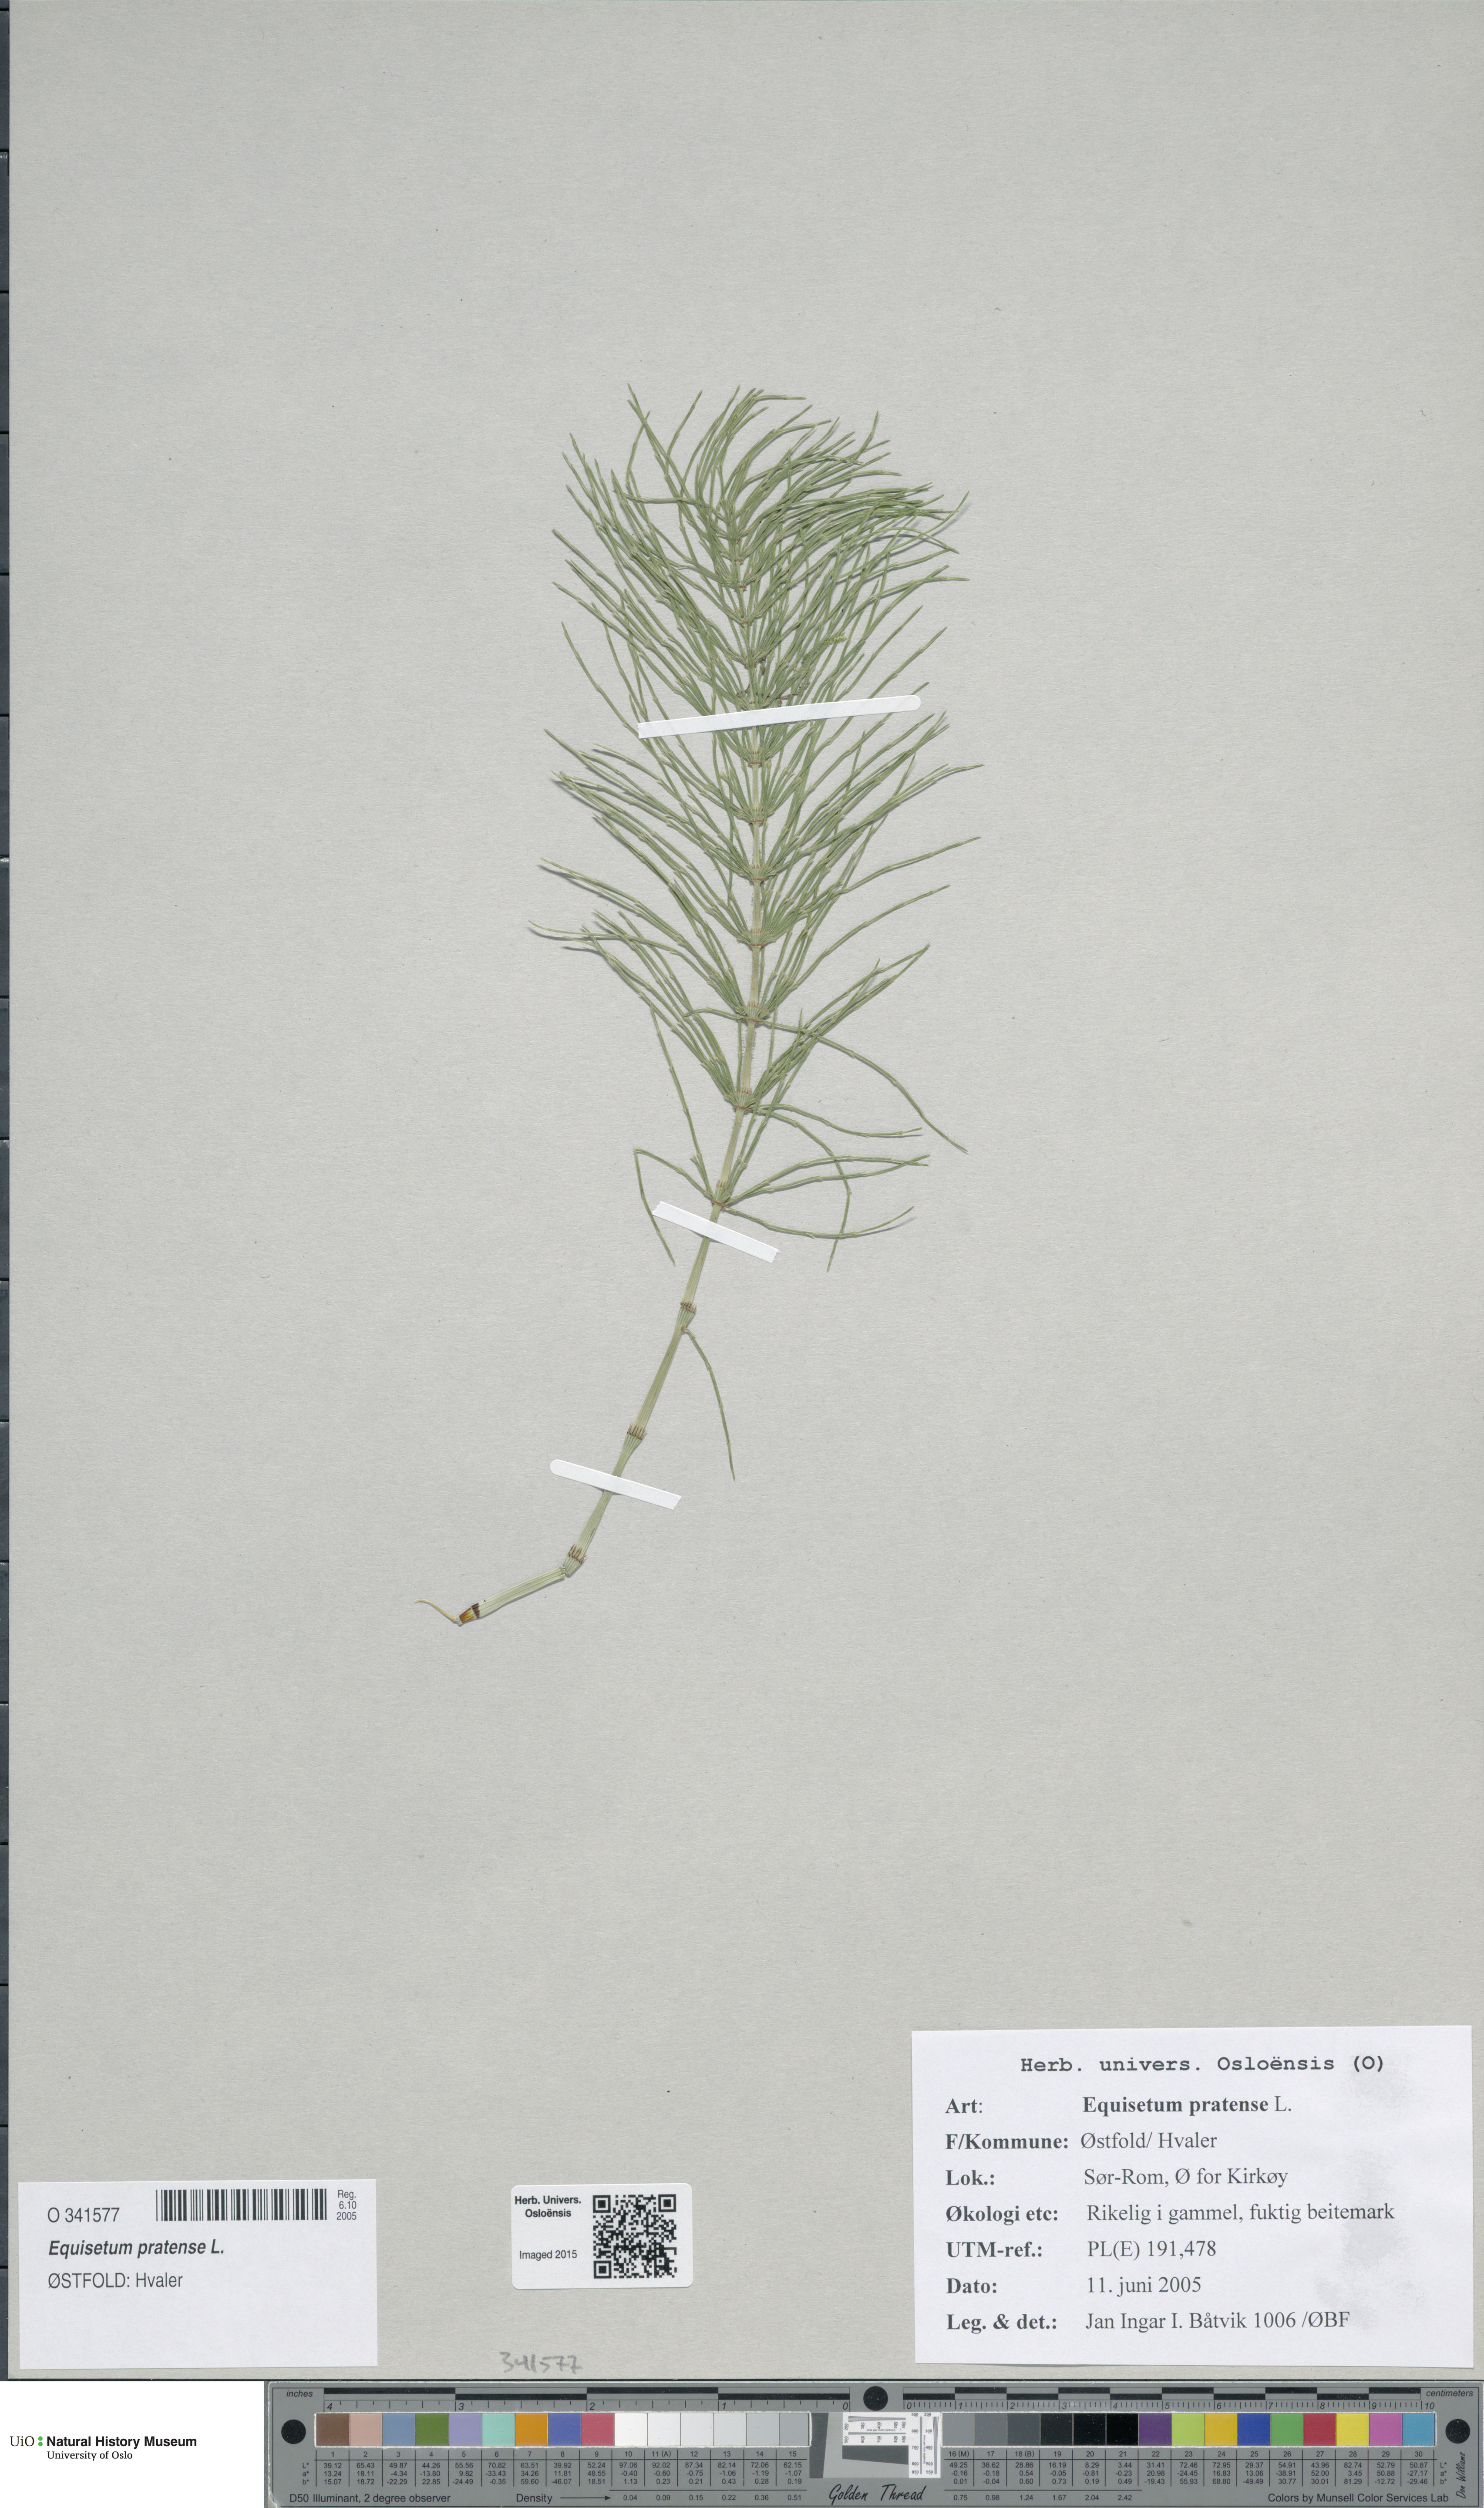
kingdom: Plantae
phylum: Tracheophyta
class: Polypodiopsida
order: Equisetales
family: Equisetaceae
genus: Equisetum
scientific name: Equisetum pratense
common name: Meadow horsetail
